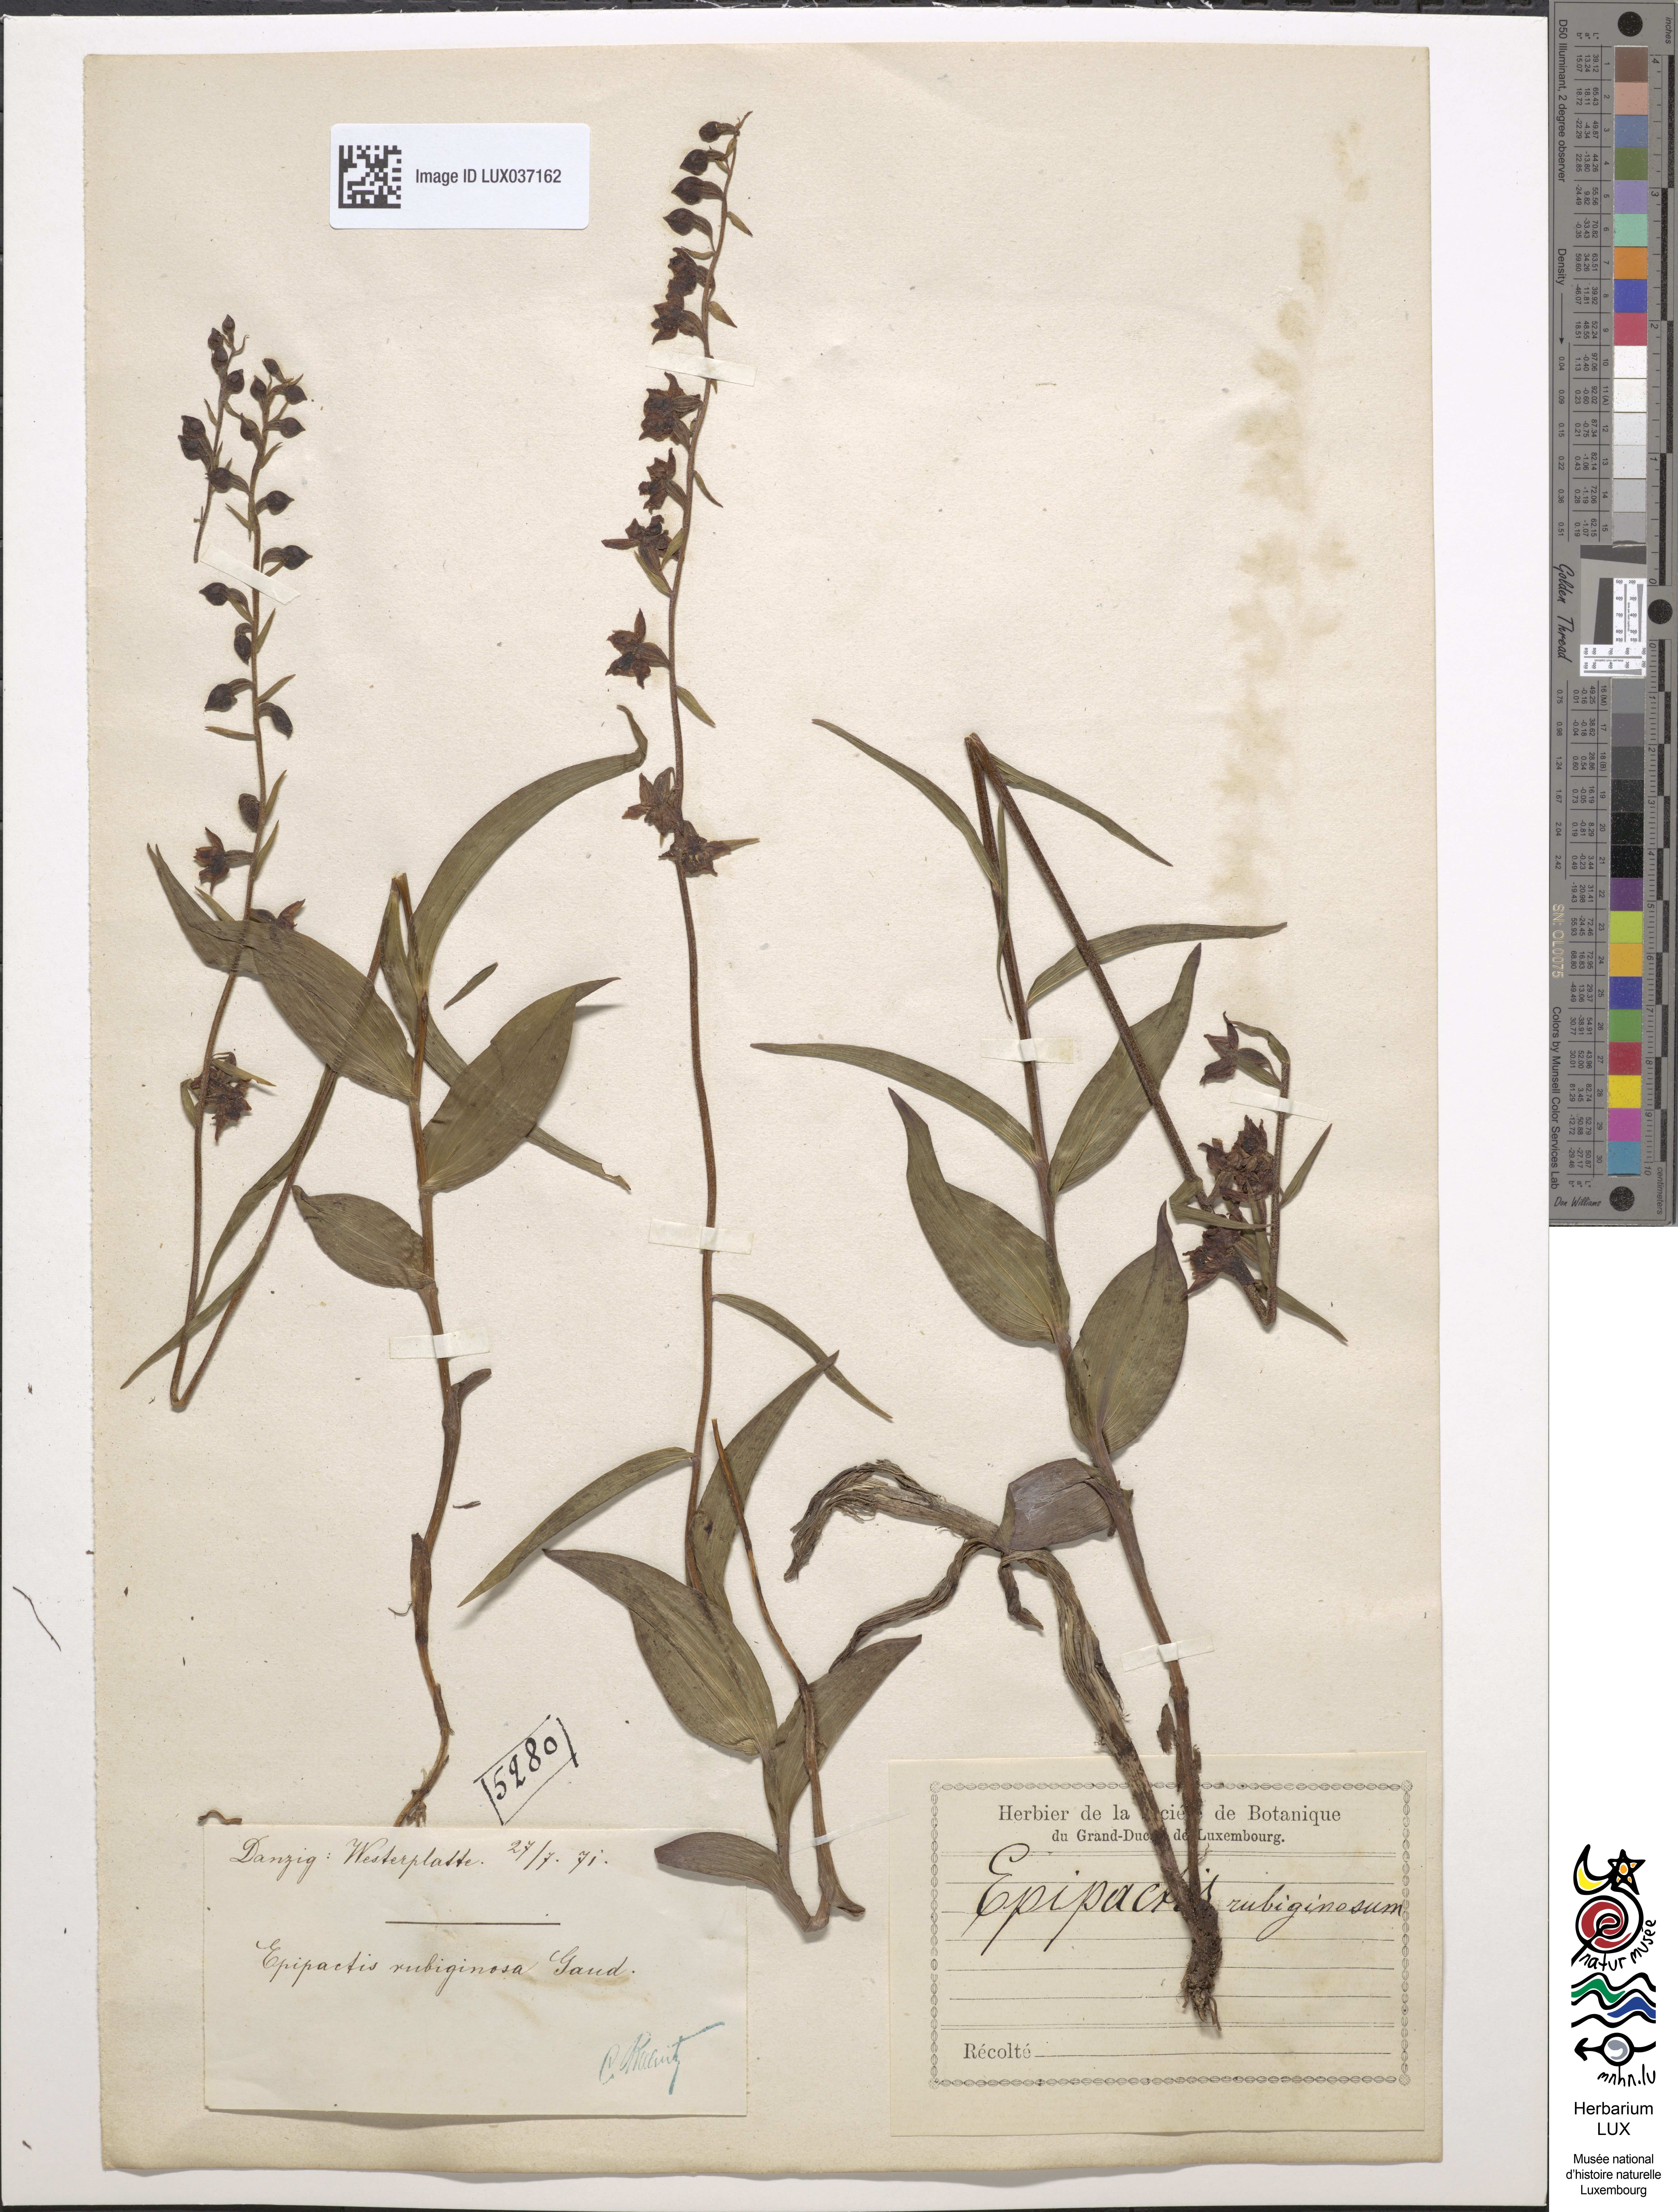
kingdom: Plantae
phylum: Tracheophyta
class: Liliopsida
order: Asparagales
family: Orchidaceae
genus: Epipactis
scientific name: Epipactis atrorubens
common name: Dark-red helleborine
